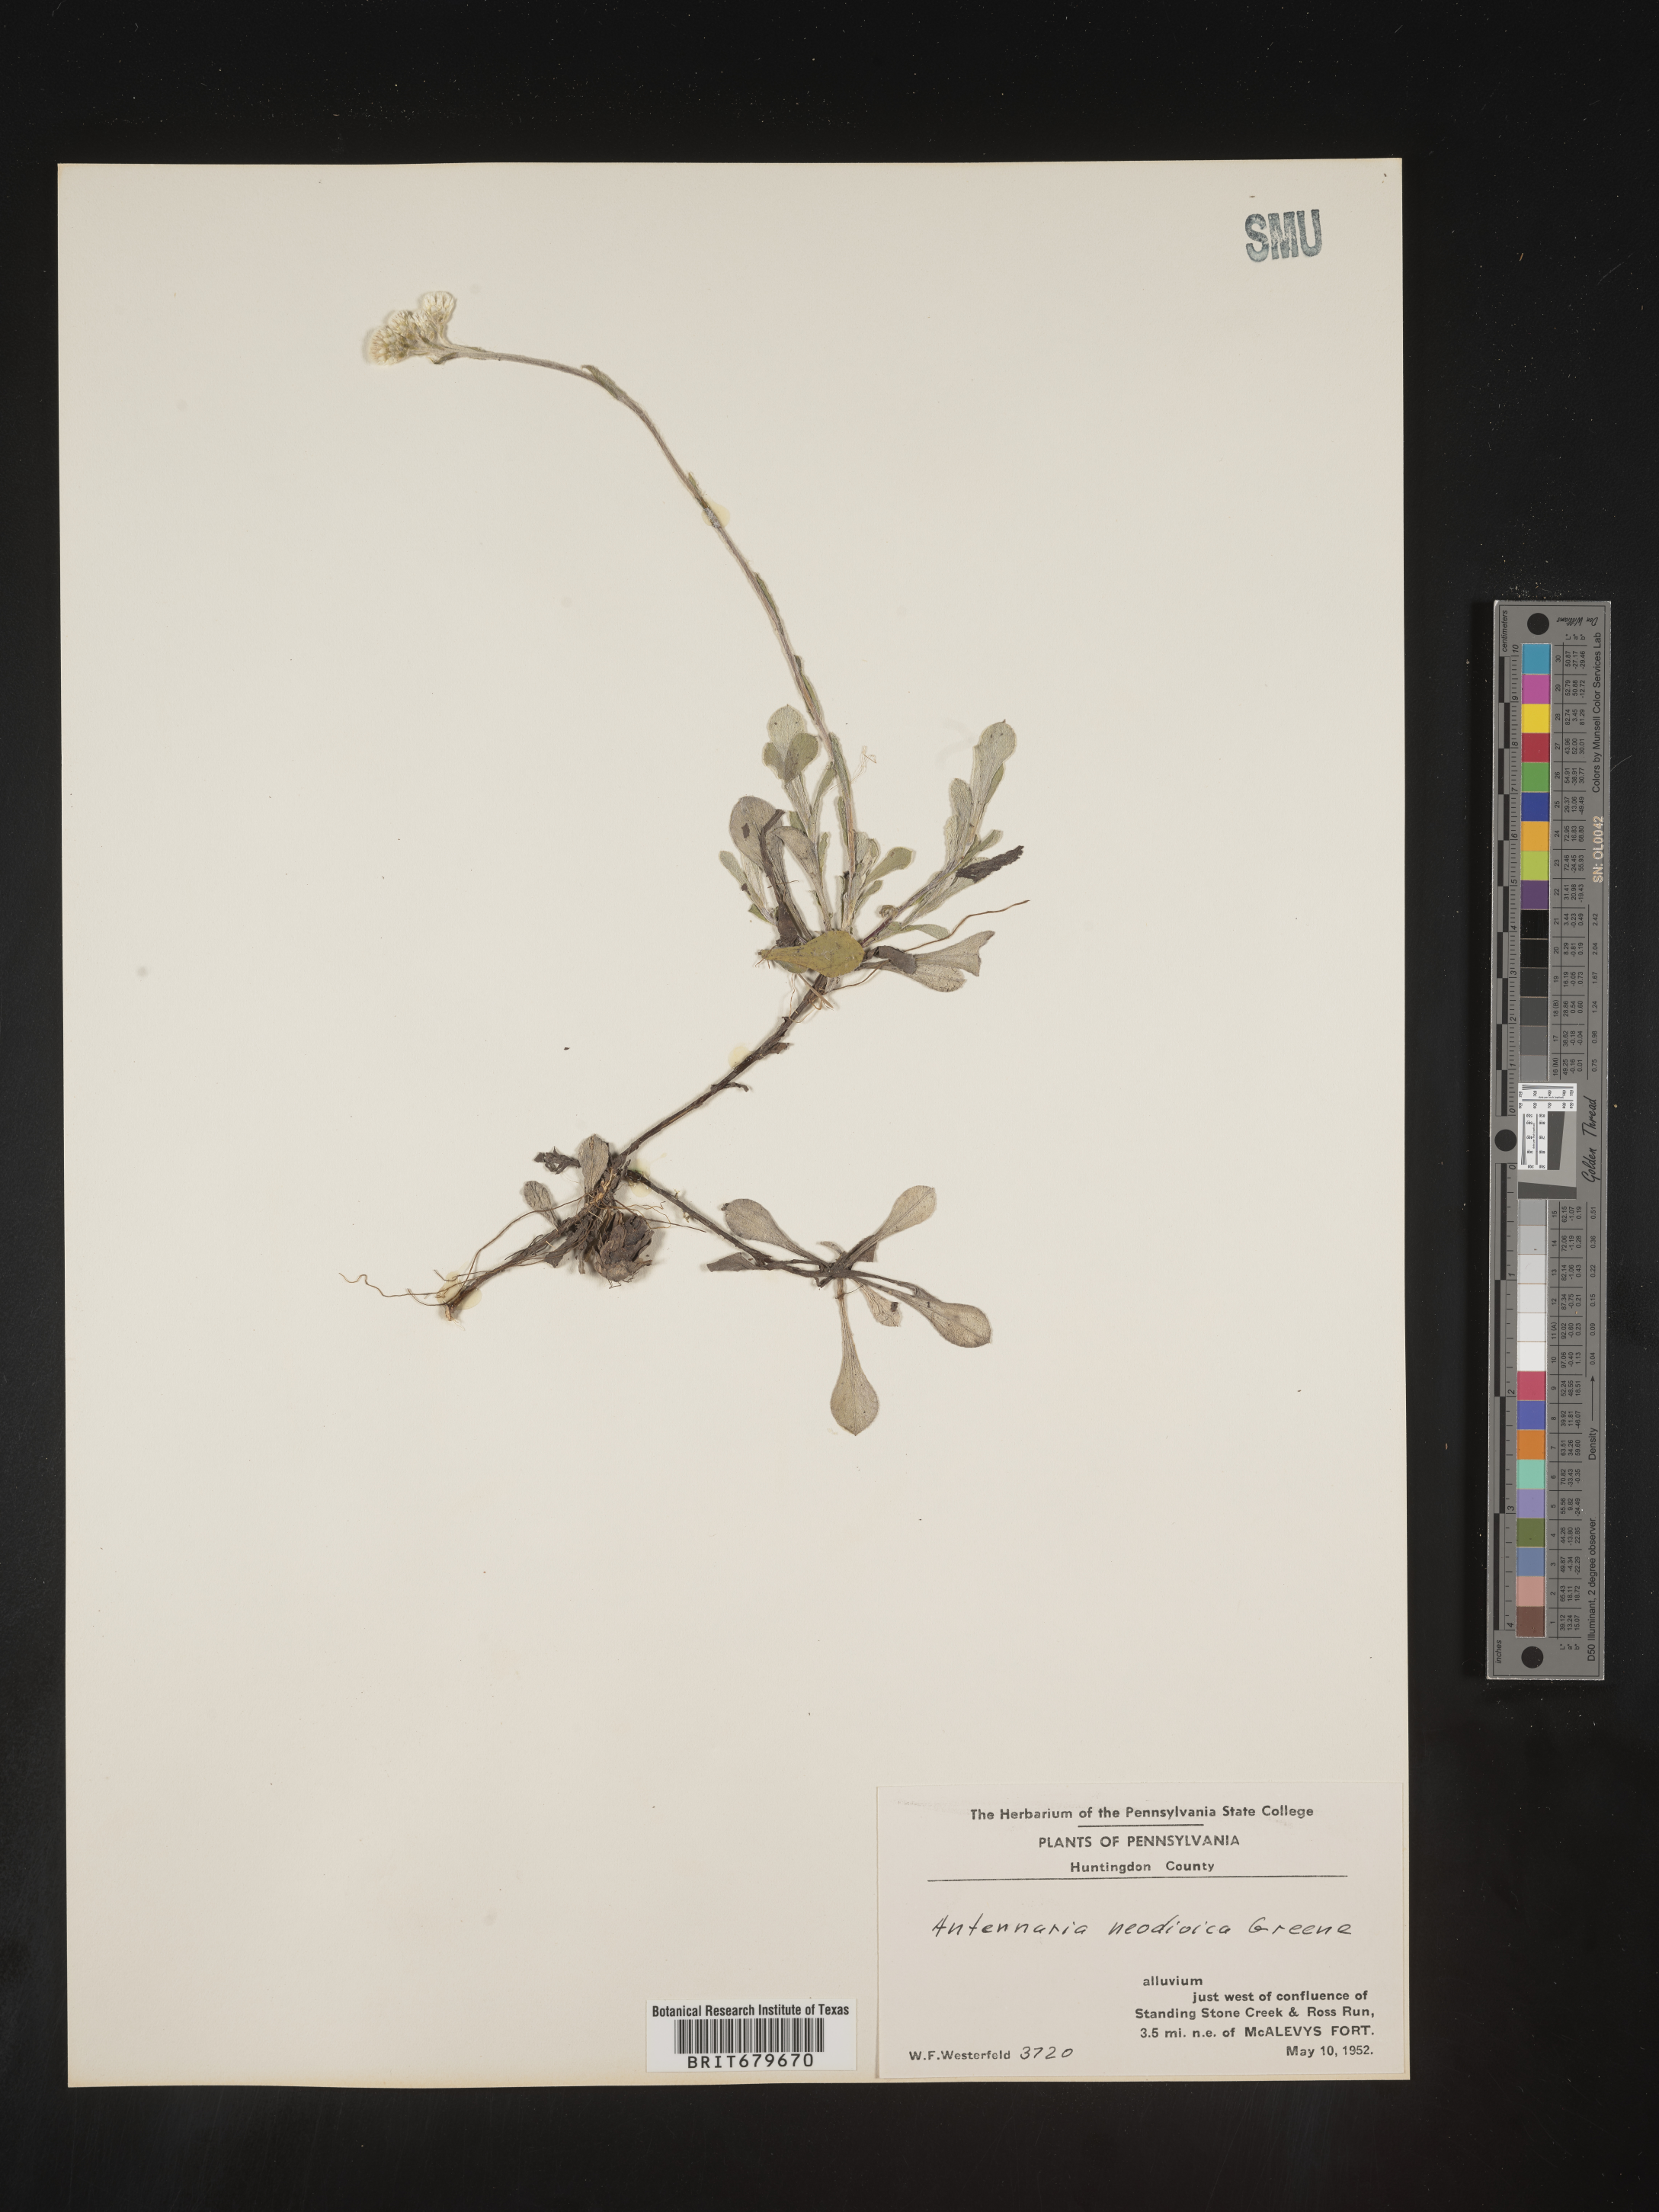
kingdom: Plantae
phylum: Tracheophyta
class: Magnoliopsida
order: Asterales
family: Asteraceae
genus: Antennaria
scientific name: Antennaria howellii
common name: Howell's pussytoes
